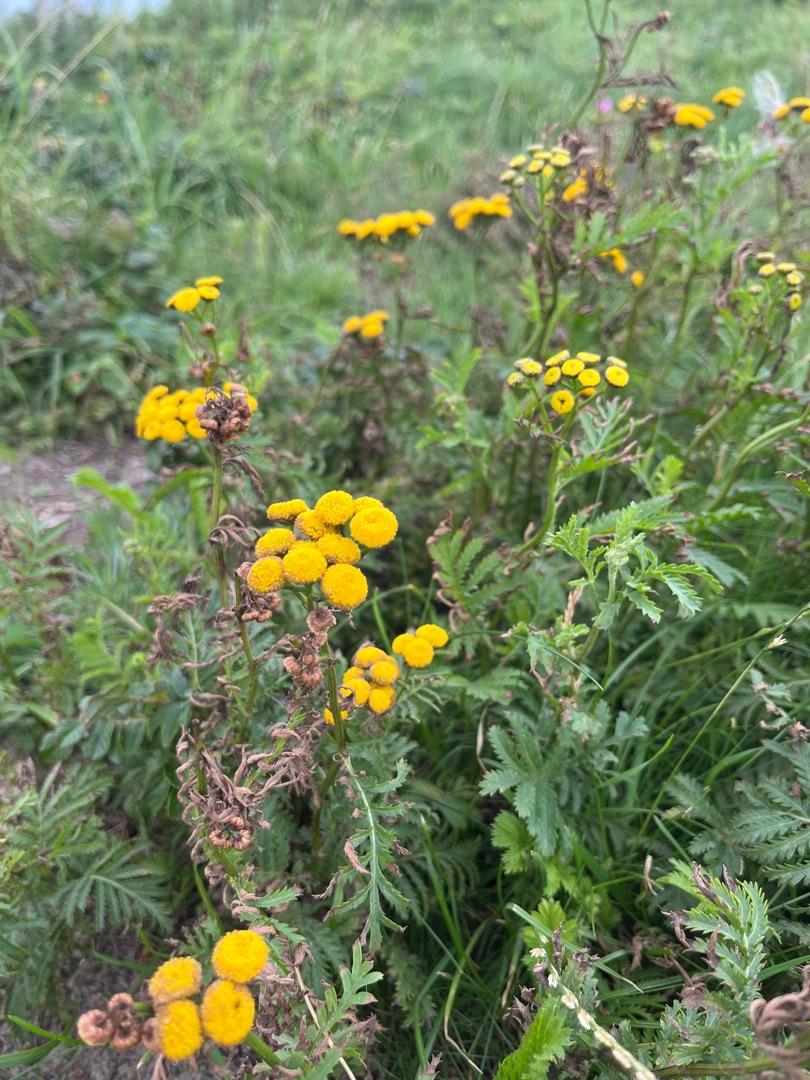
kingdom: Plantae
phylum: Tracheophyta
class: Magnoliopsida
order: Asterales
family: Asteraceae
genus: Tanacetum
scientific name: Tanacetum vulgare
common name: Rejnfan
